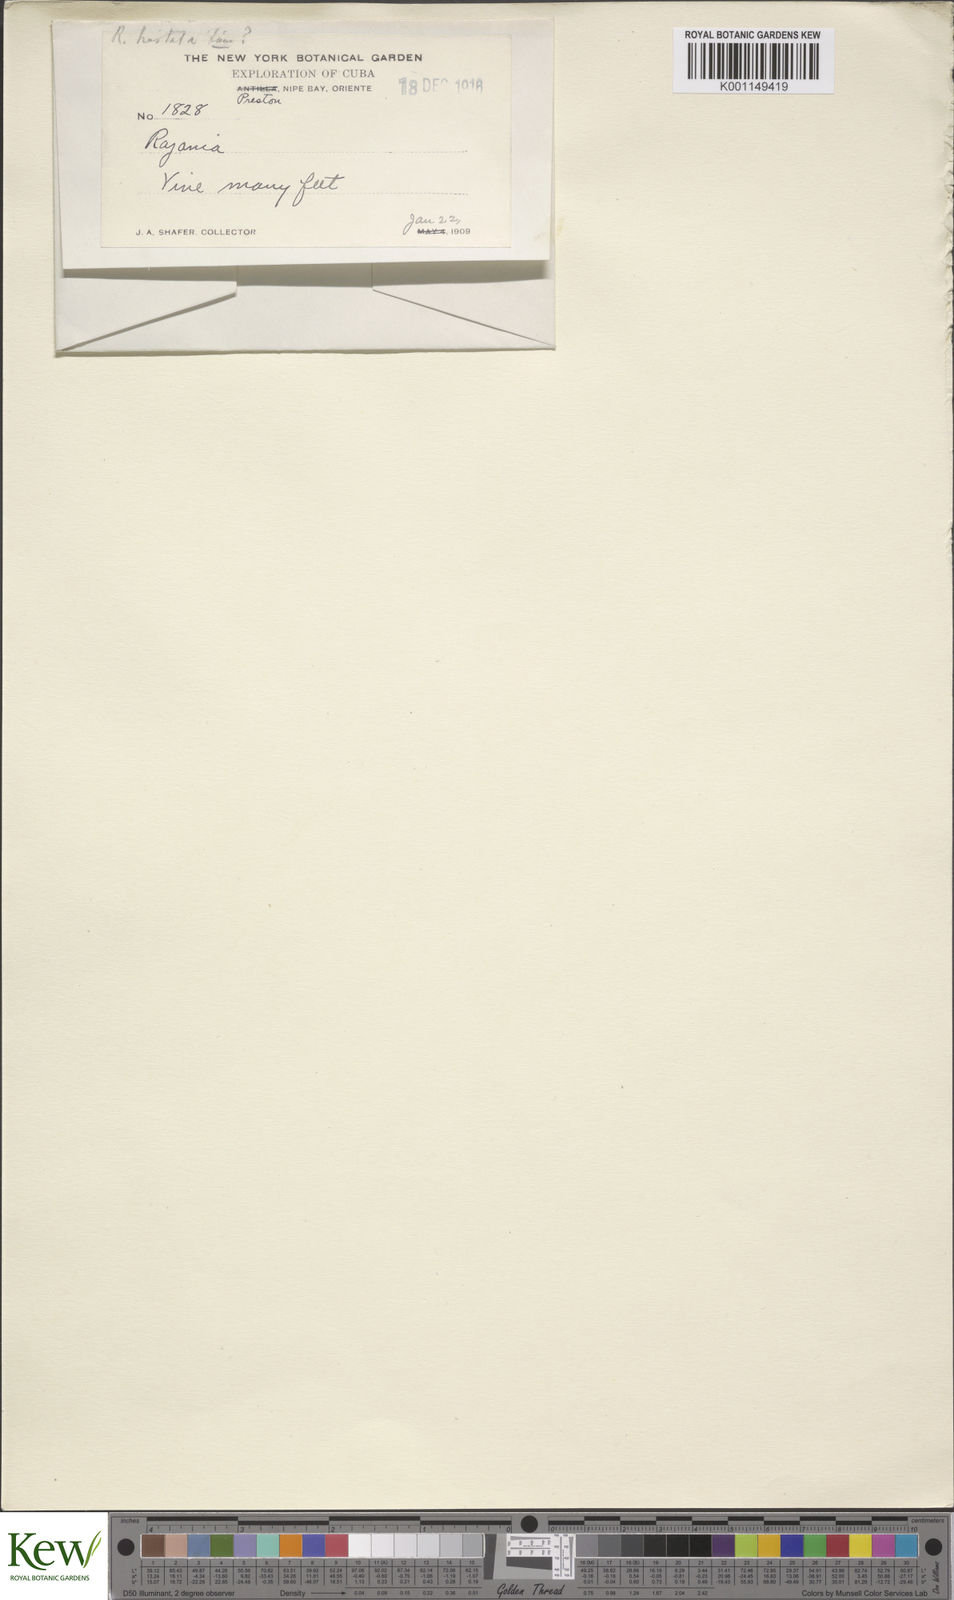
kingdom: Plantae
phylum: Tracheophyta
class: Liliopsida
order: Dioscoreales
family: Dioscoreaceae
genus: Dioscorea
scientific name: Dioscorea hastata
